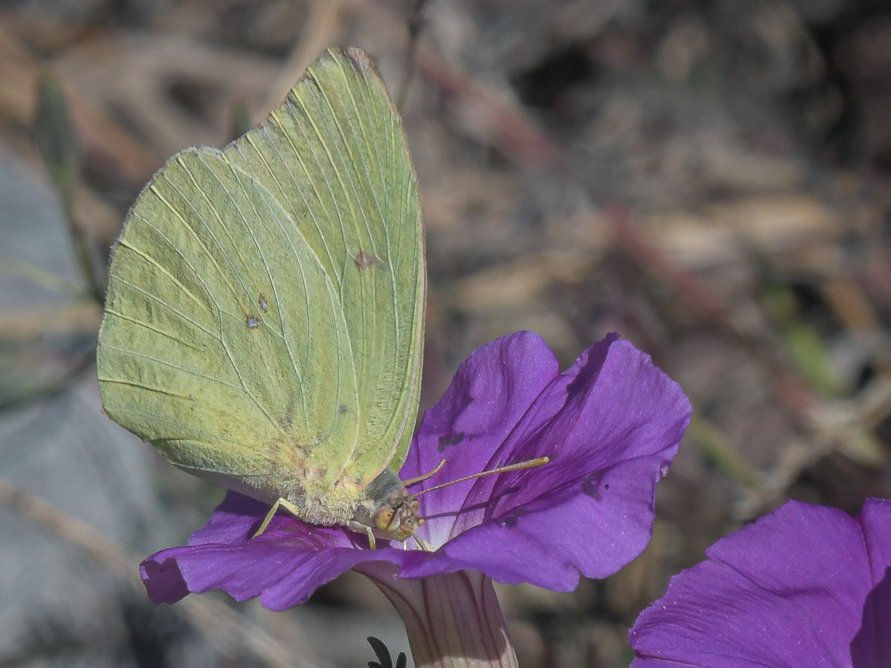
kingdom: Animalia
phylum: Arthropoda
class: Insecta
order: Lepidoptera
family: Pieridae
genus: Phoebis
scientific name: Phoebis sennae
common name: Cloudless Sulphur
